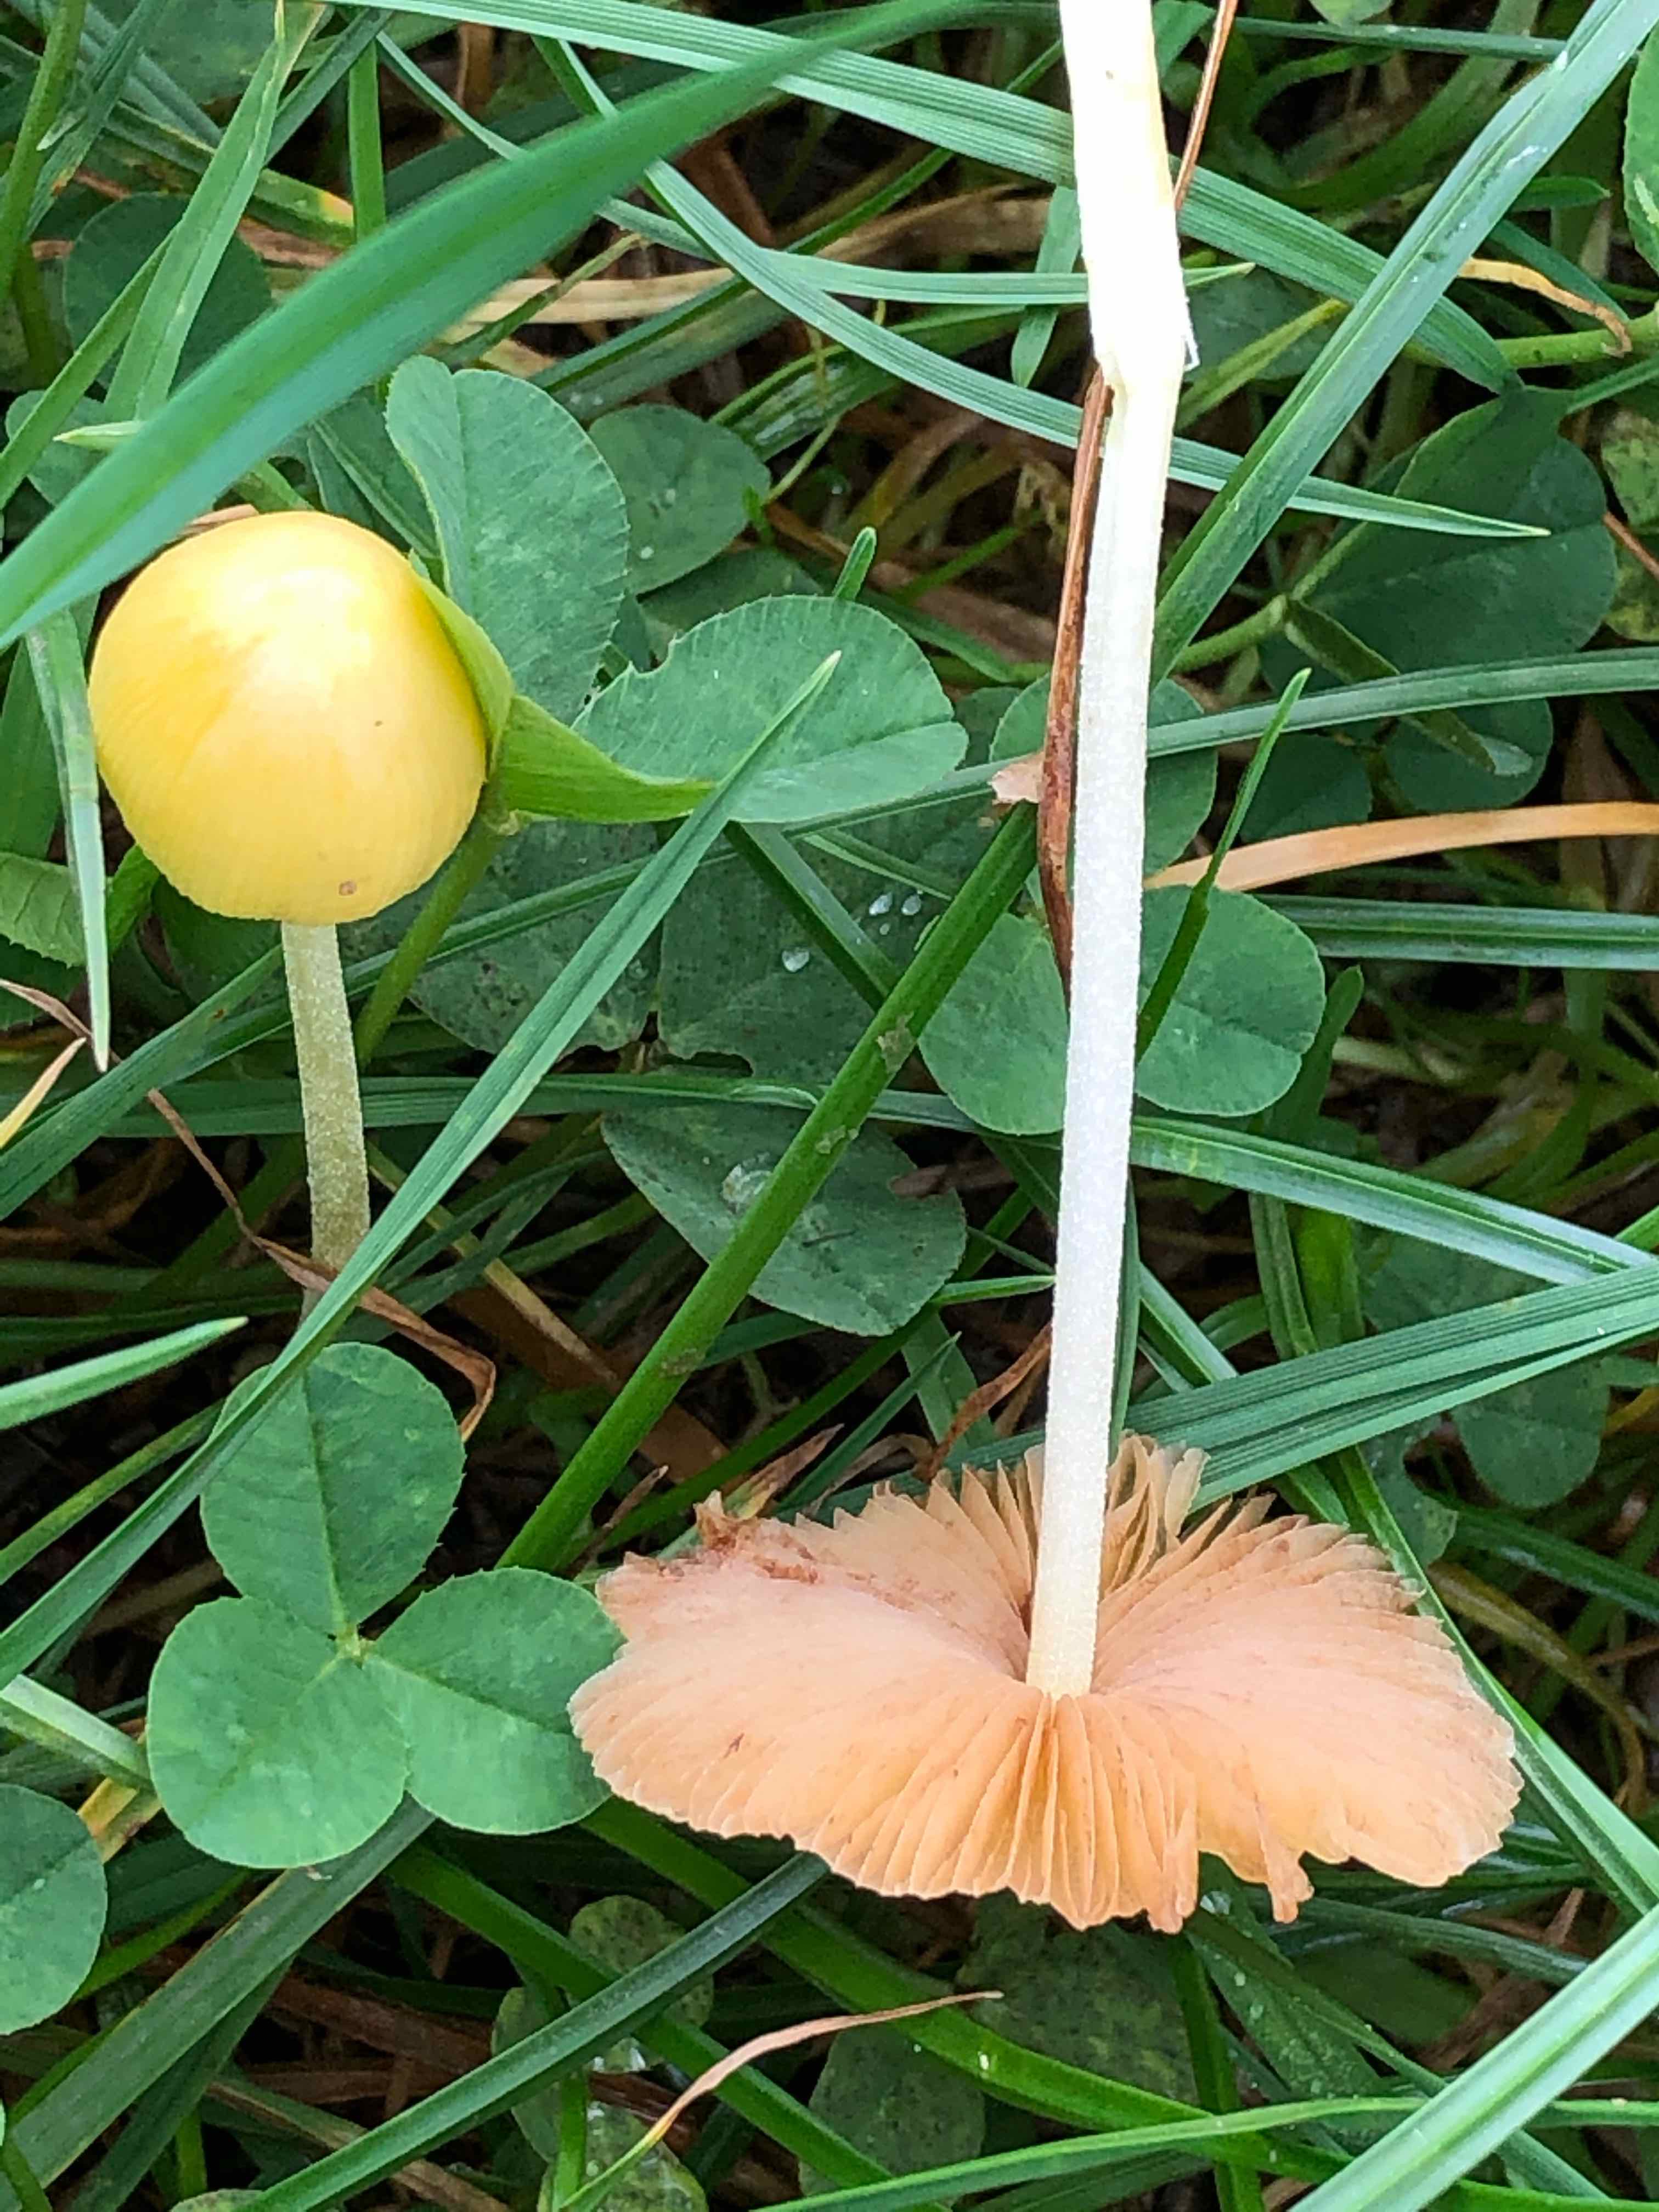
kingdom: Fungi
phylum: Basidiomycota
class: Agaricomycetes
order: Agaricales
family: Bolbitiaceae
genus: Bolbitius
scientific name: Bolbitius titubans
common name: almindelig gulhat
